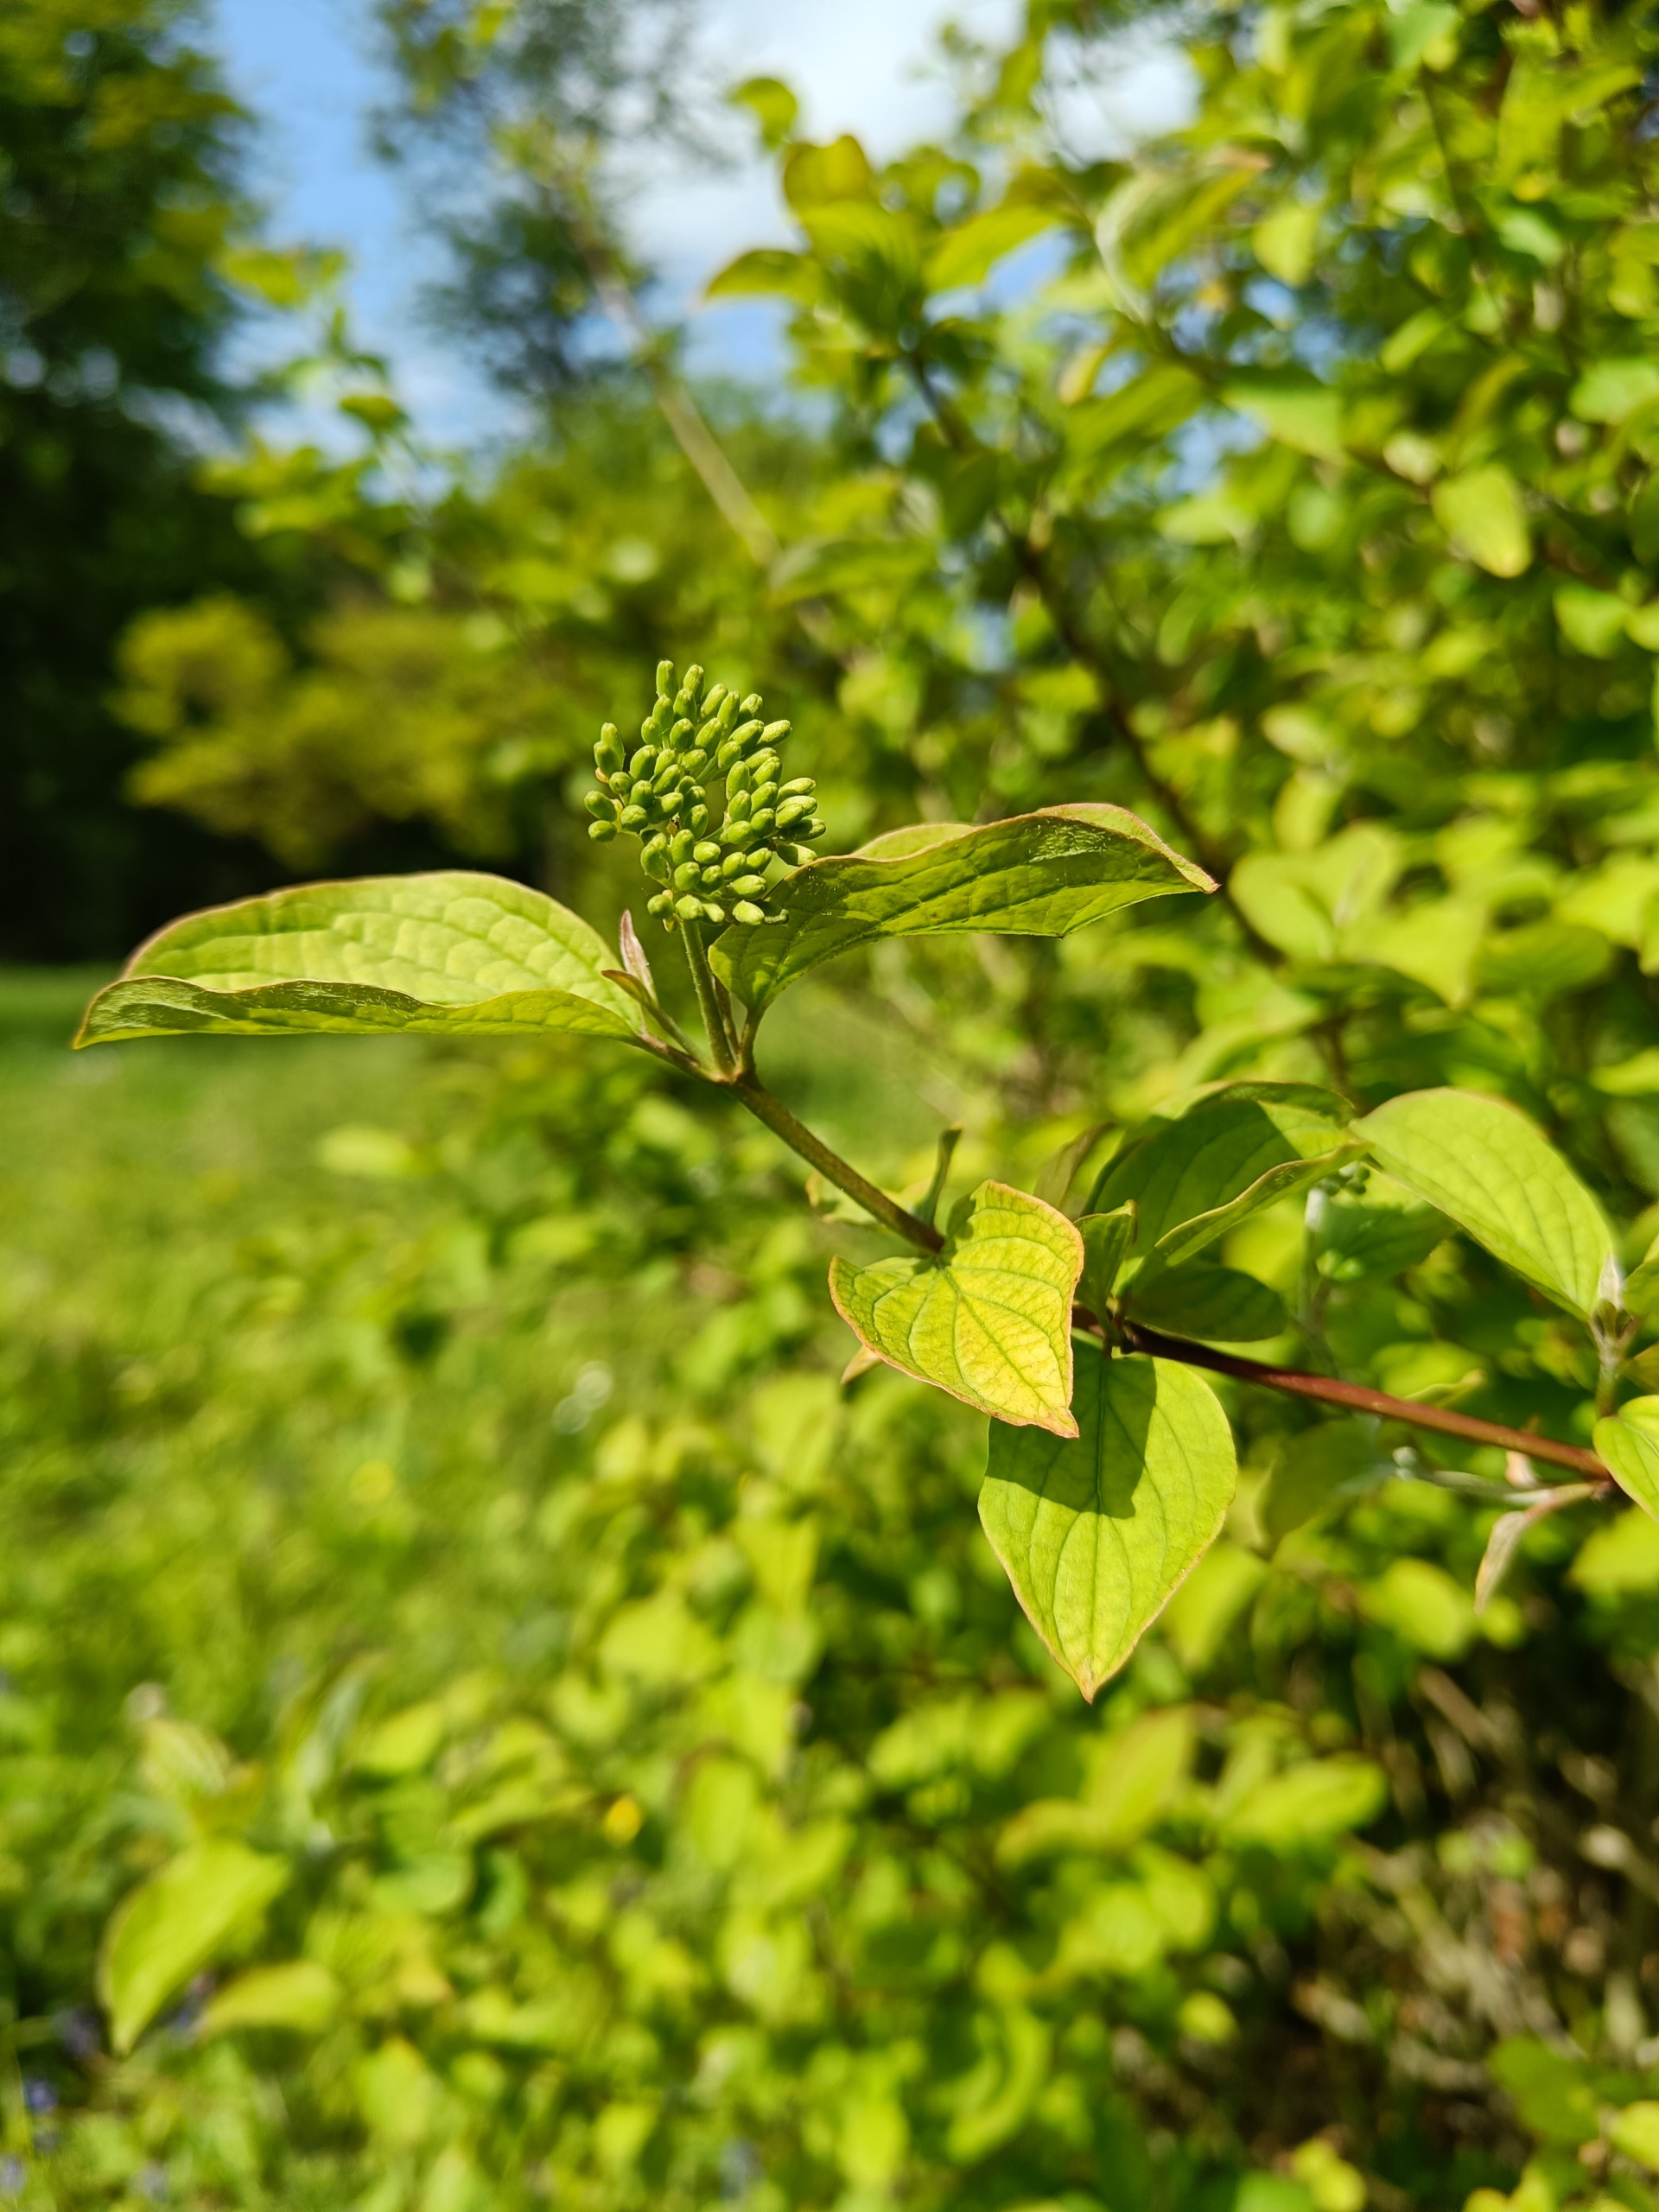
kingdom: Plantae
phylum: Tracheophyta
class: Magnoliopsida
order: Cornales
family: Cornaceae
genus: Cornus
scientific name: Cornus sanguinea
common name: Rød kornel
